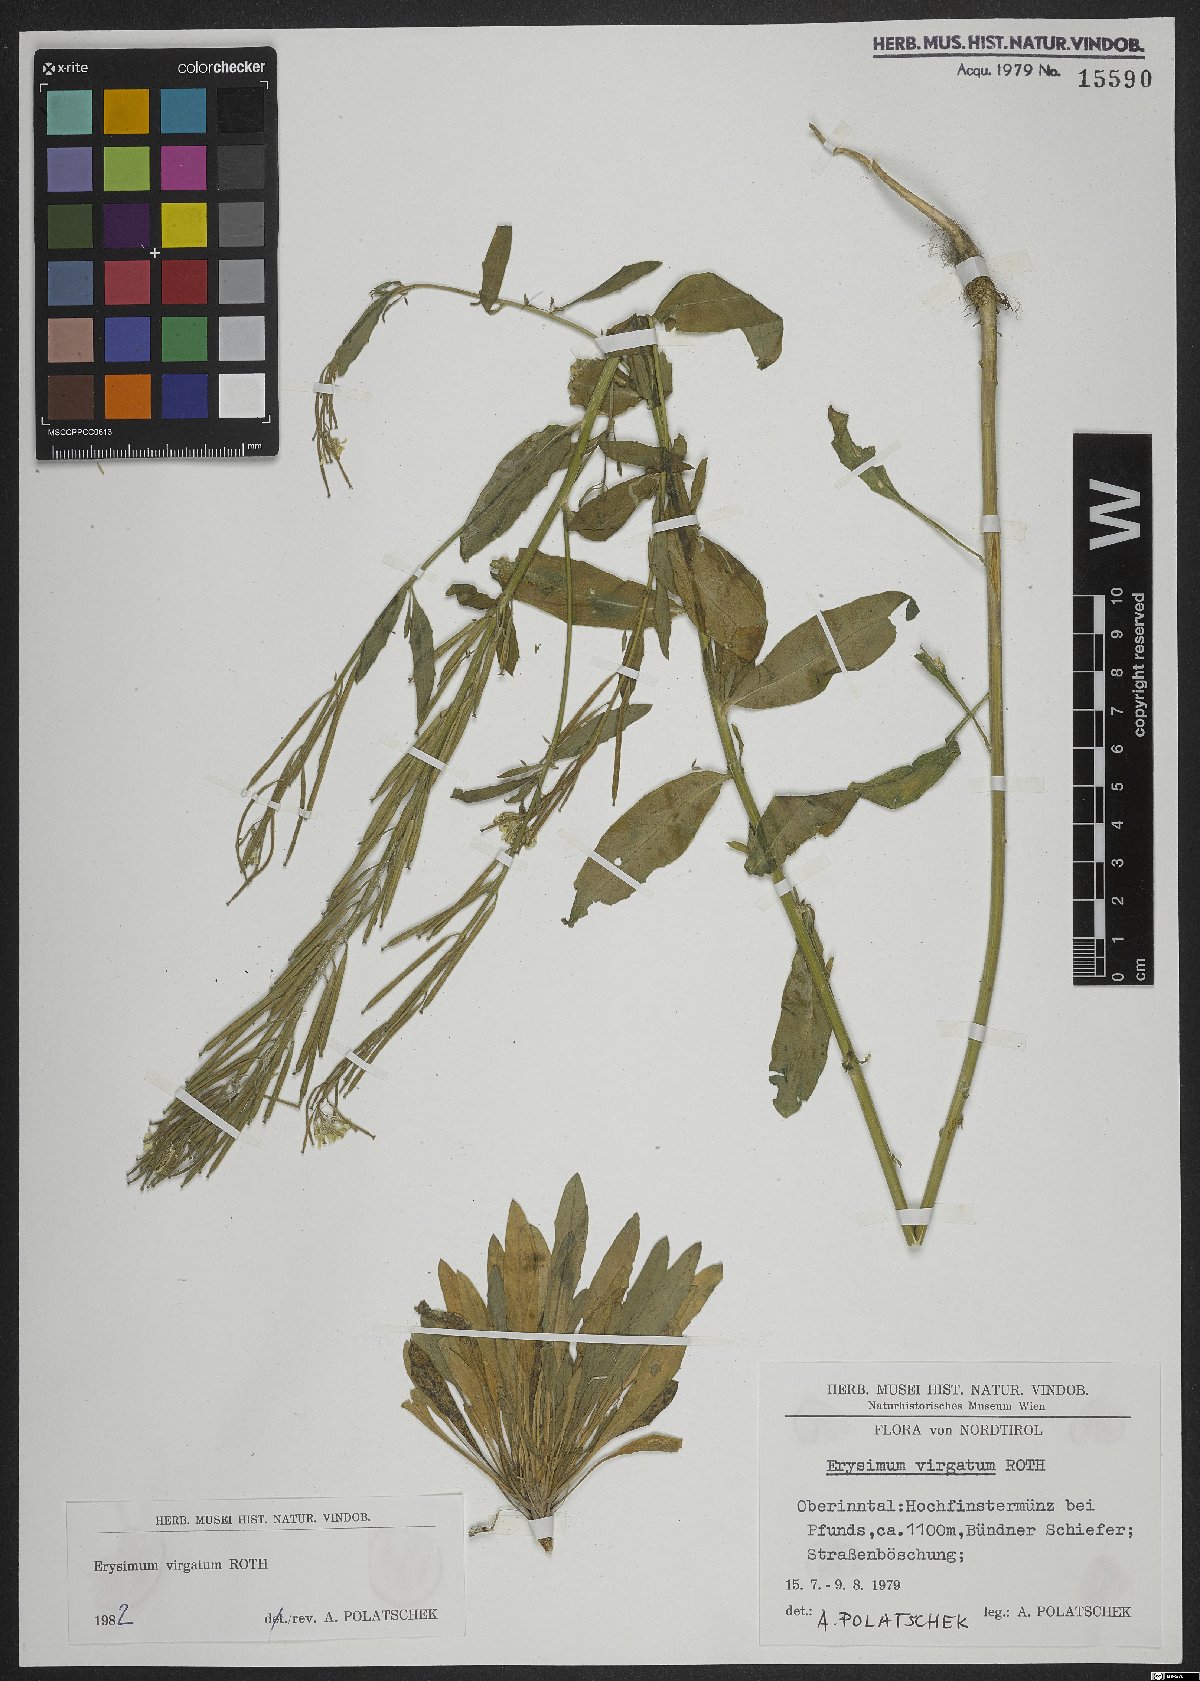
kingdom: Plantae
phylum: Tracheophyta
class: Magnoliopsida
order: Brassicales
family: Brassicaceae
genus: Erysimum
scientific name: Erysimum virgatum
